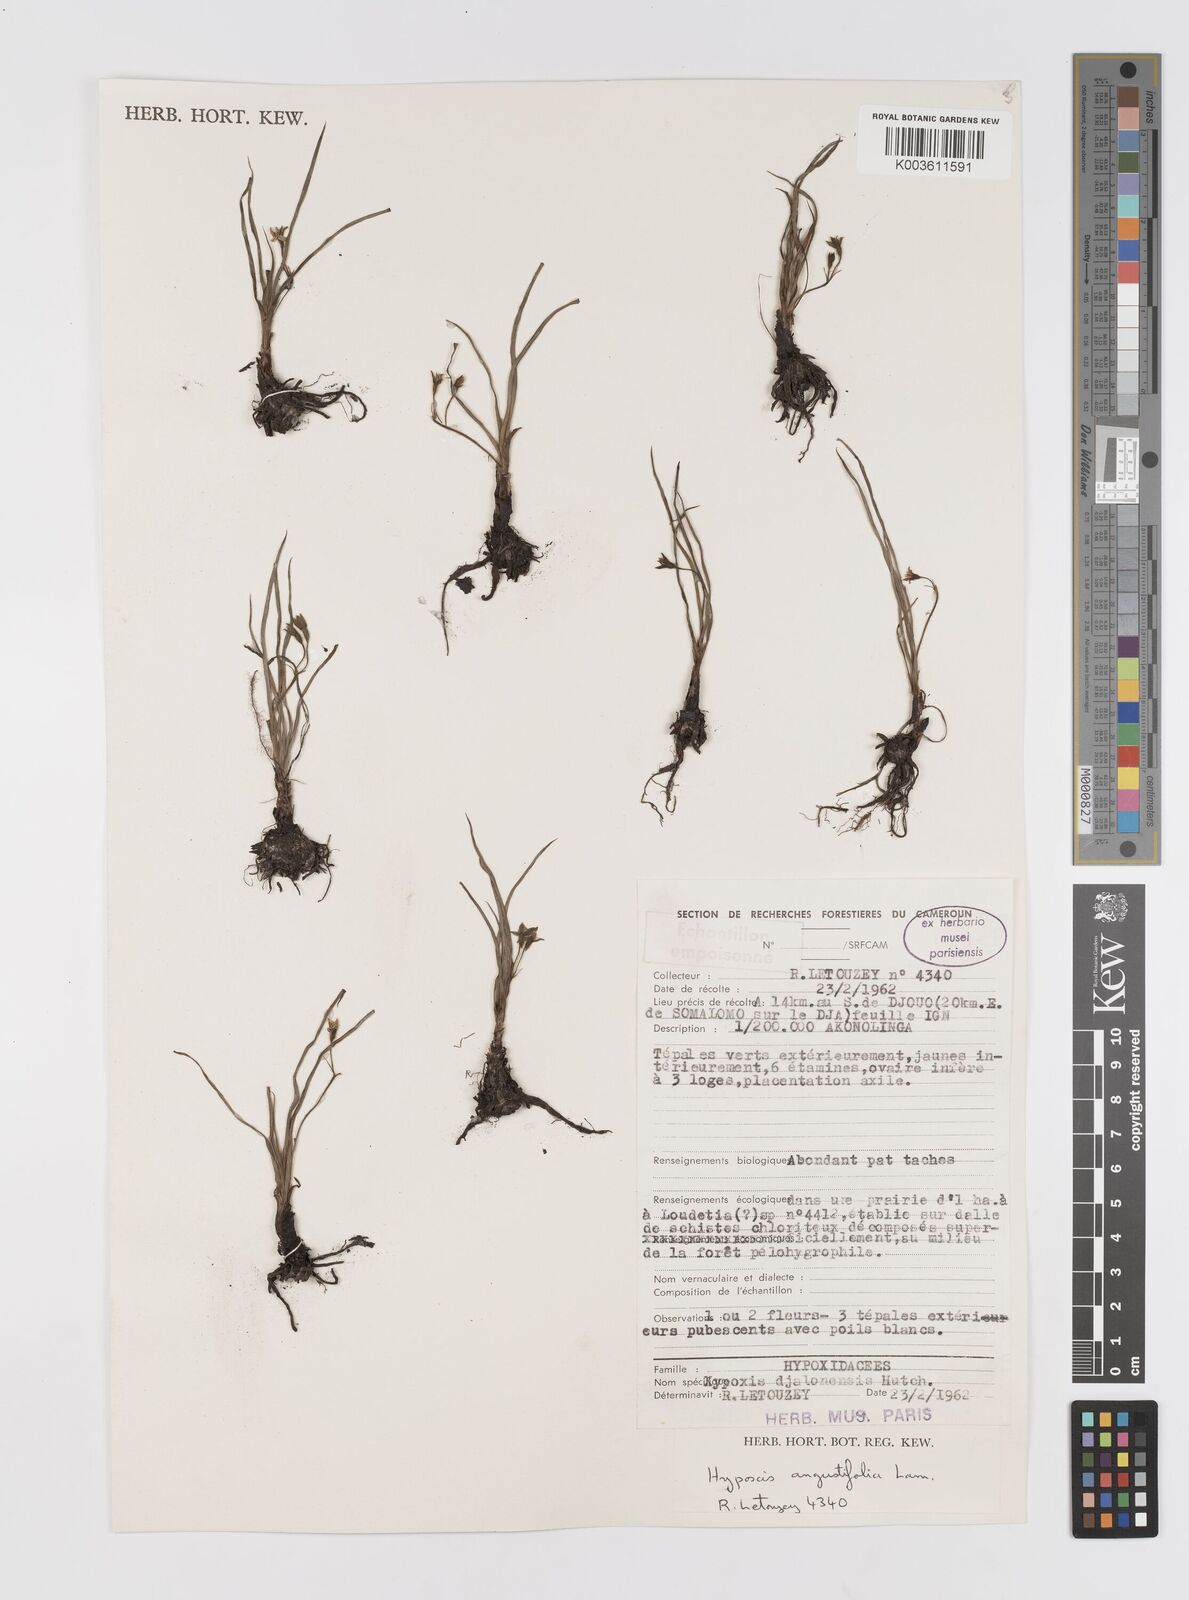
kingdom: Plantae
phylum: Tracheophyta
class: Liliopsida
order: Asparagales
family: Hypoxidaceae
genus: Hypoxis
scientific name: Hypoxis angustifolia
